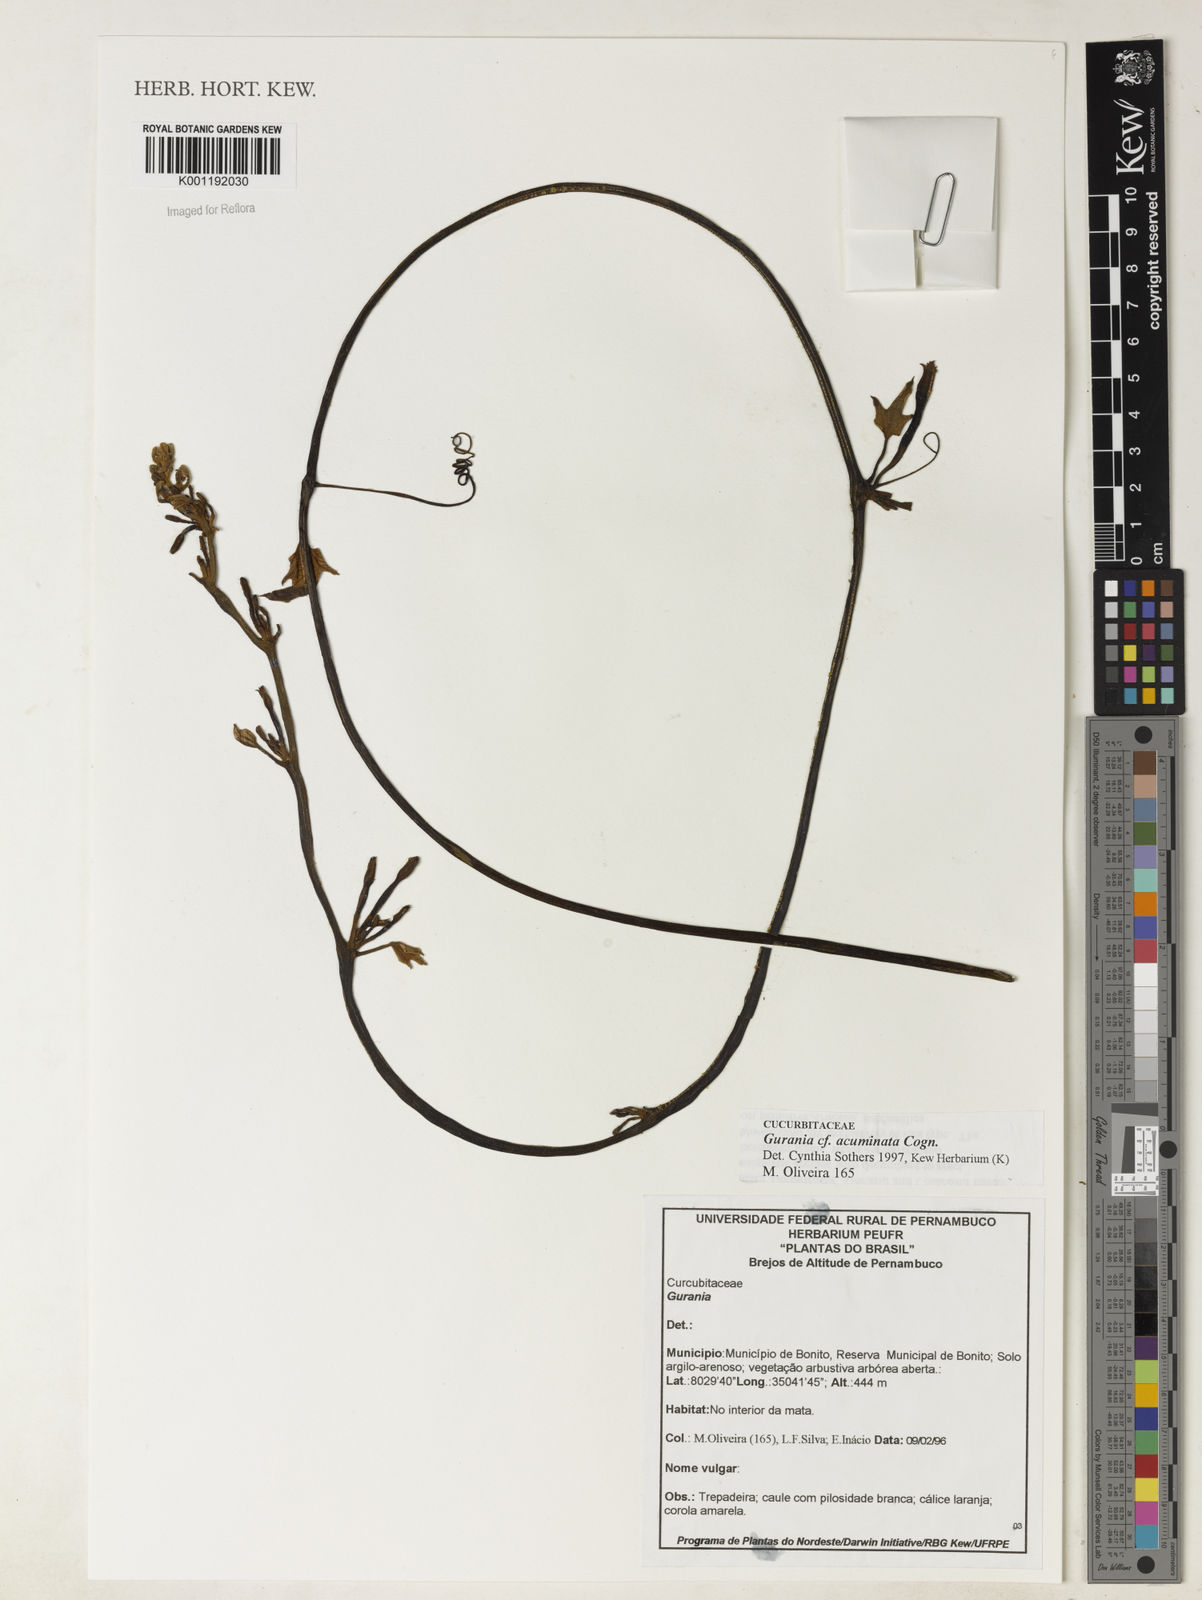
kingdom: Plantae
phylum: Tracheophyta
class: Magnoliopsida
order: Cucurbitales
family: Cucurbitaceae
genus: Gurania
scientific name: Gurania acuminata
